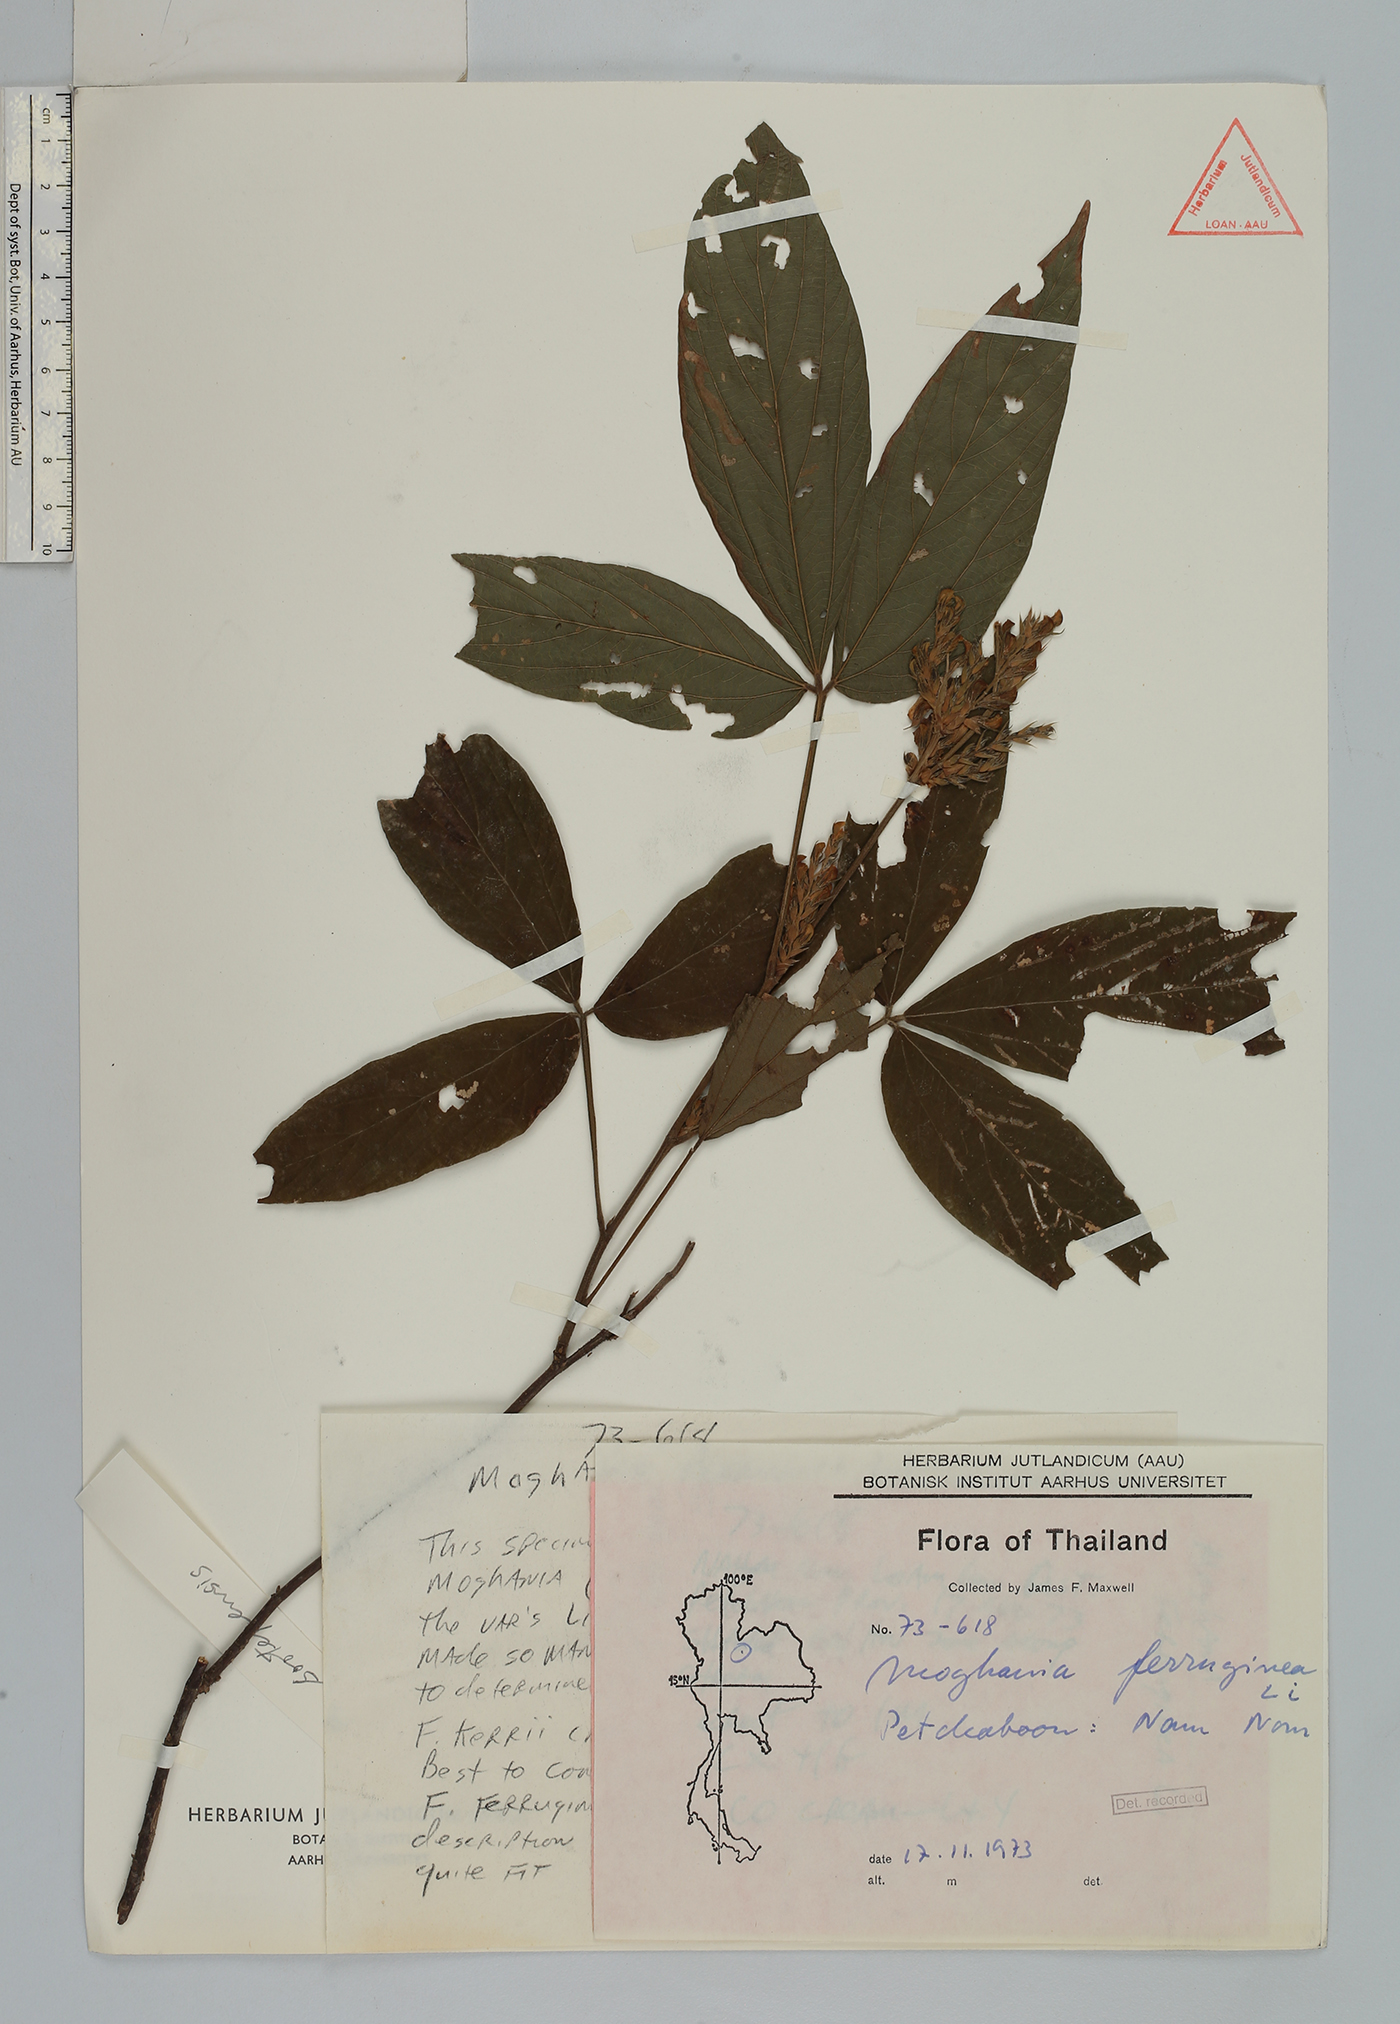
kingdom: Plantae
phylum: Tracheophyta
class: Magnoliopsida
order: Fabales
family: Fabaceae
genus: Flemingia
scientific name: Flemingia wightiana
